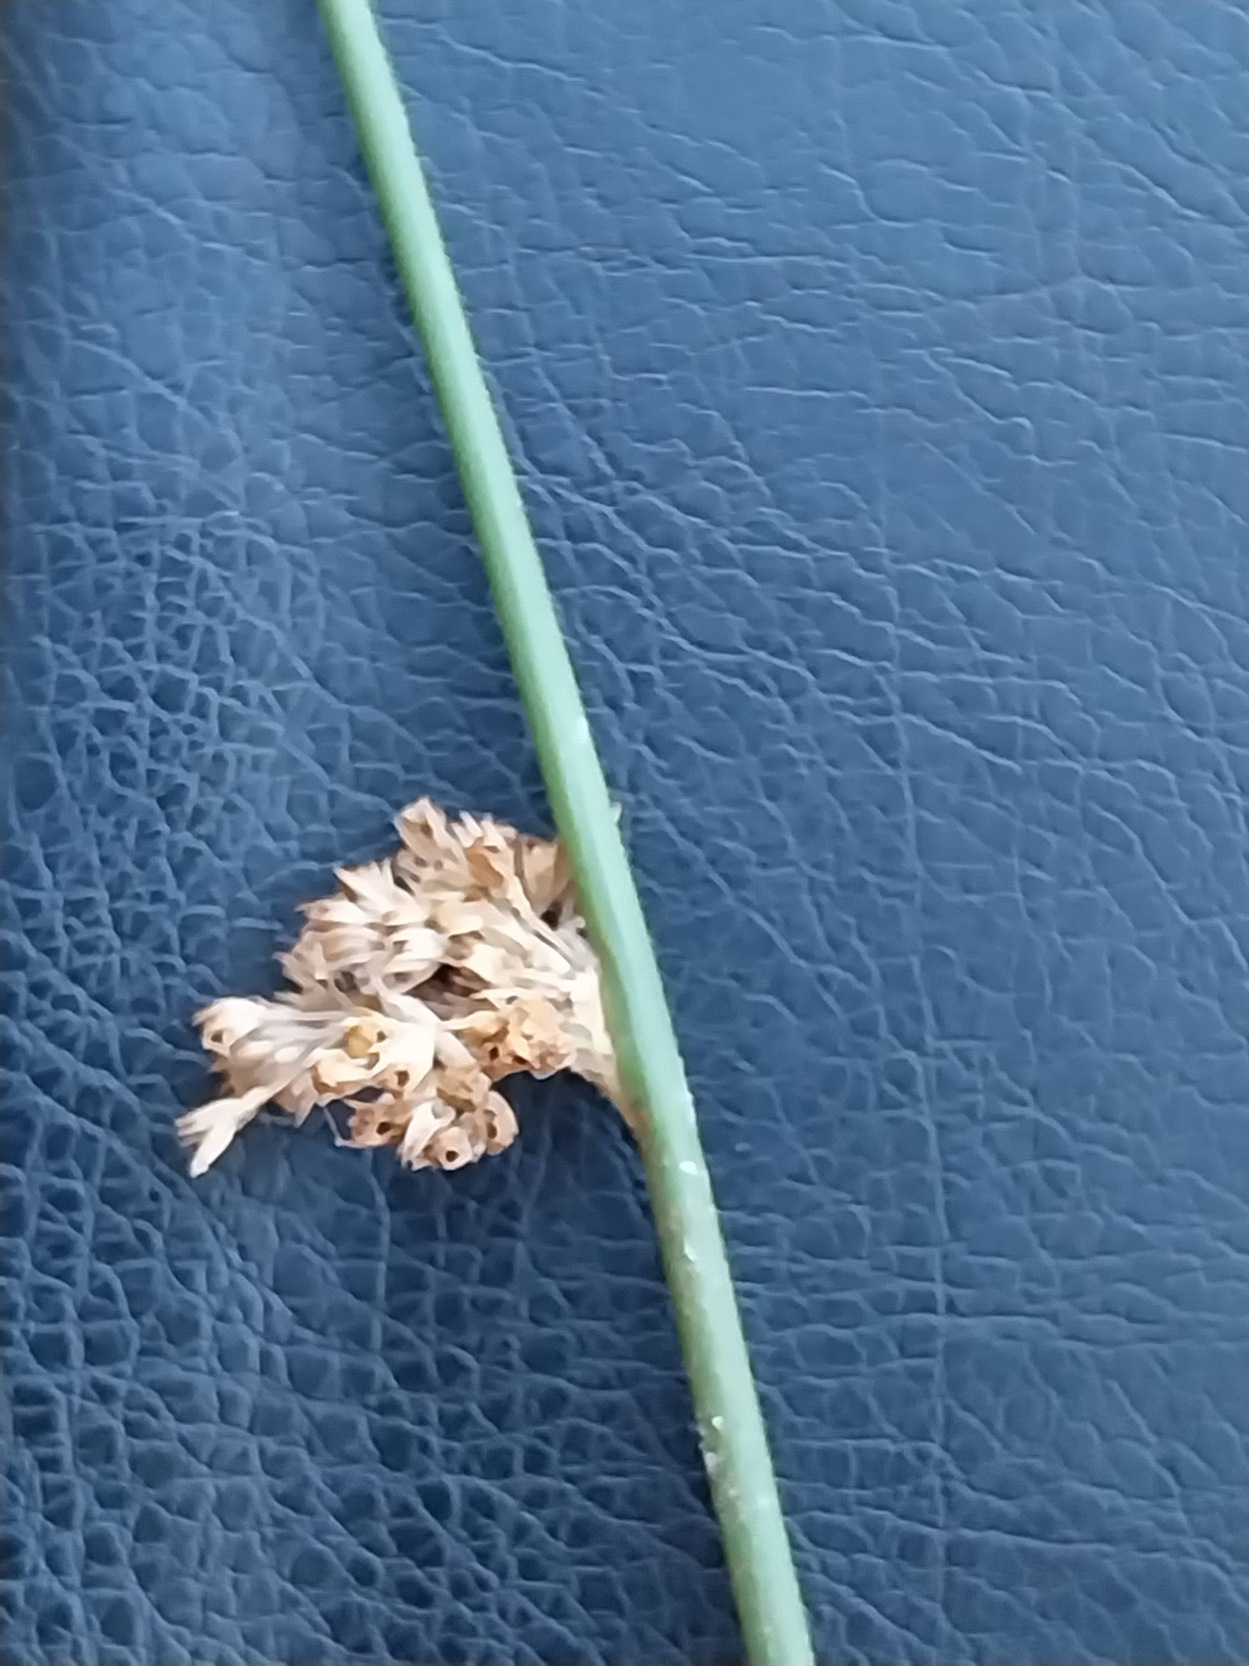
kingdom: Plantae
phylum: Tracheophyta
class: Liliopsida
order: Poales
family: Juncaceae
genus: Juncus
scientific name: Juncus effusus
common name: Lyse-siv
